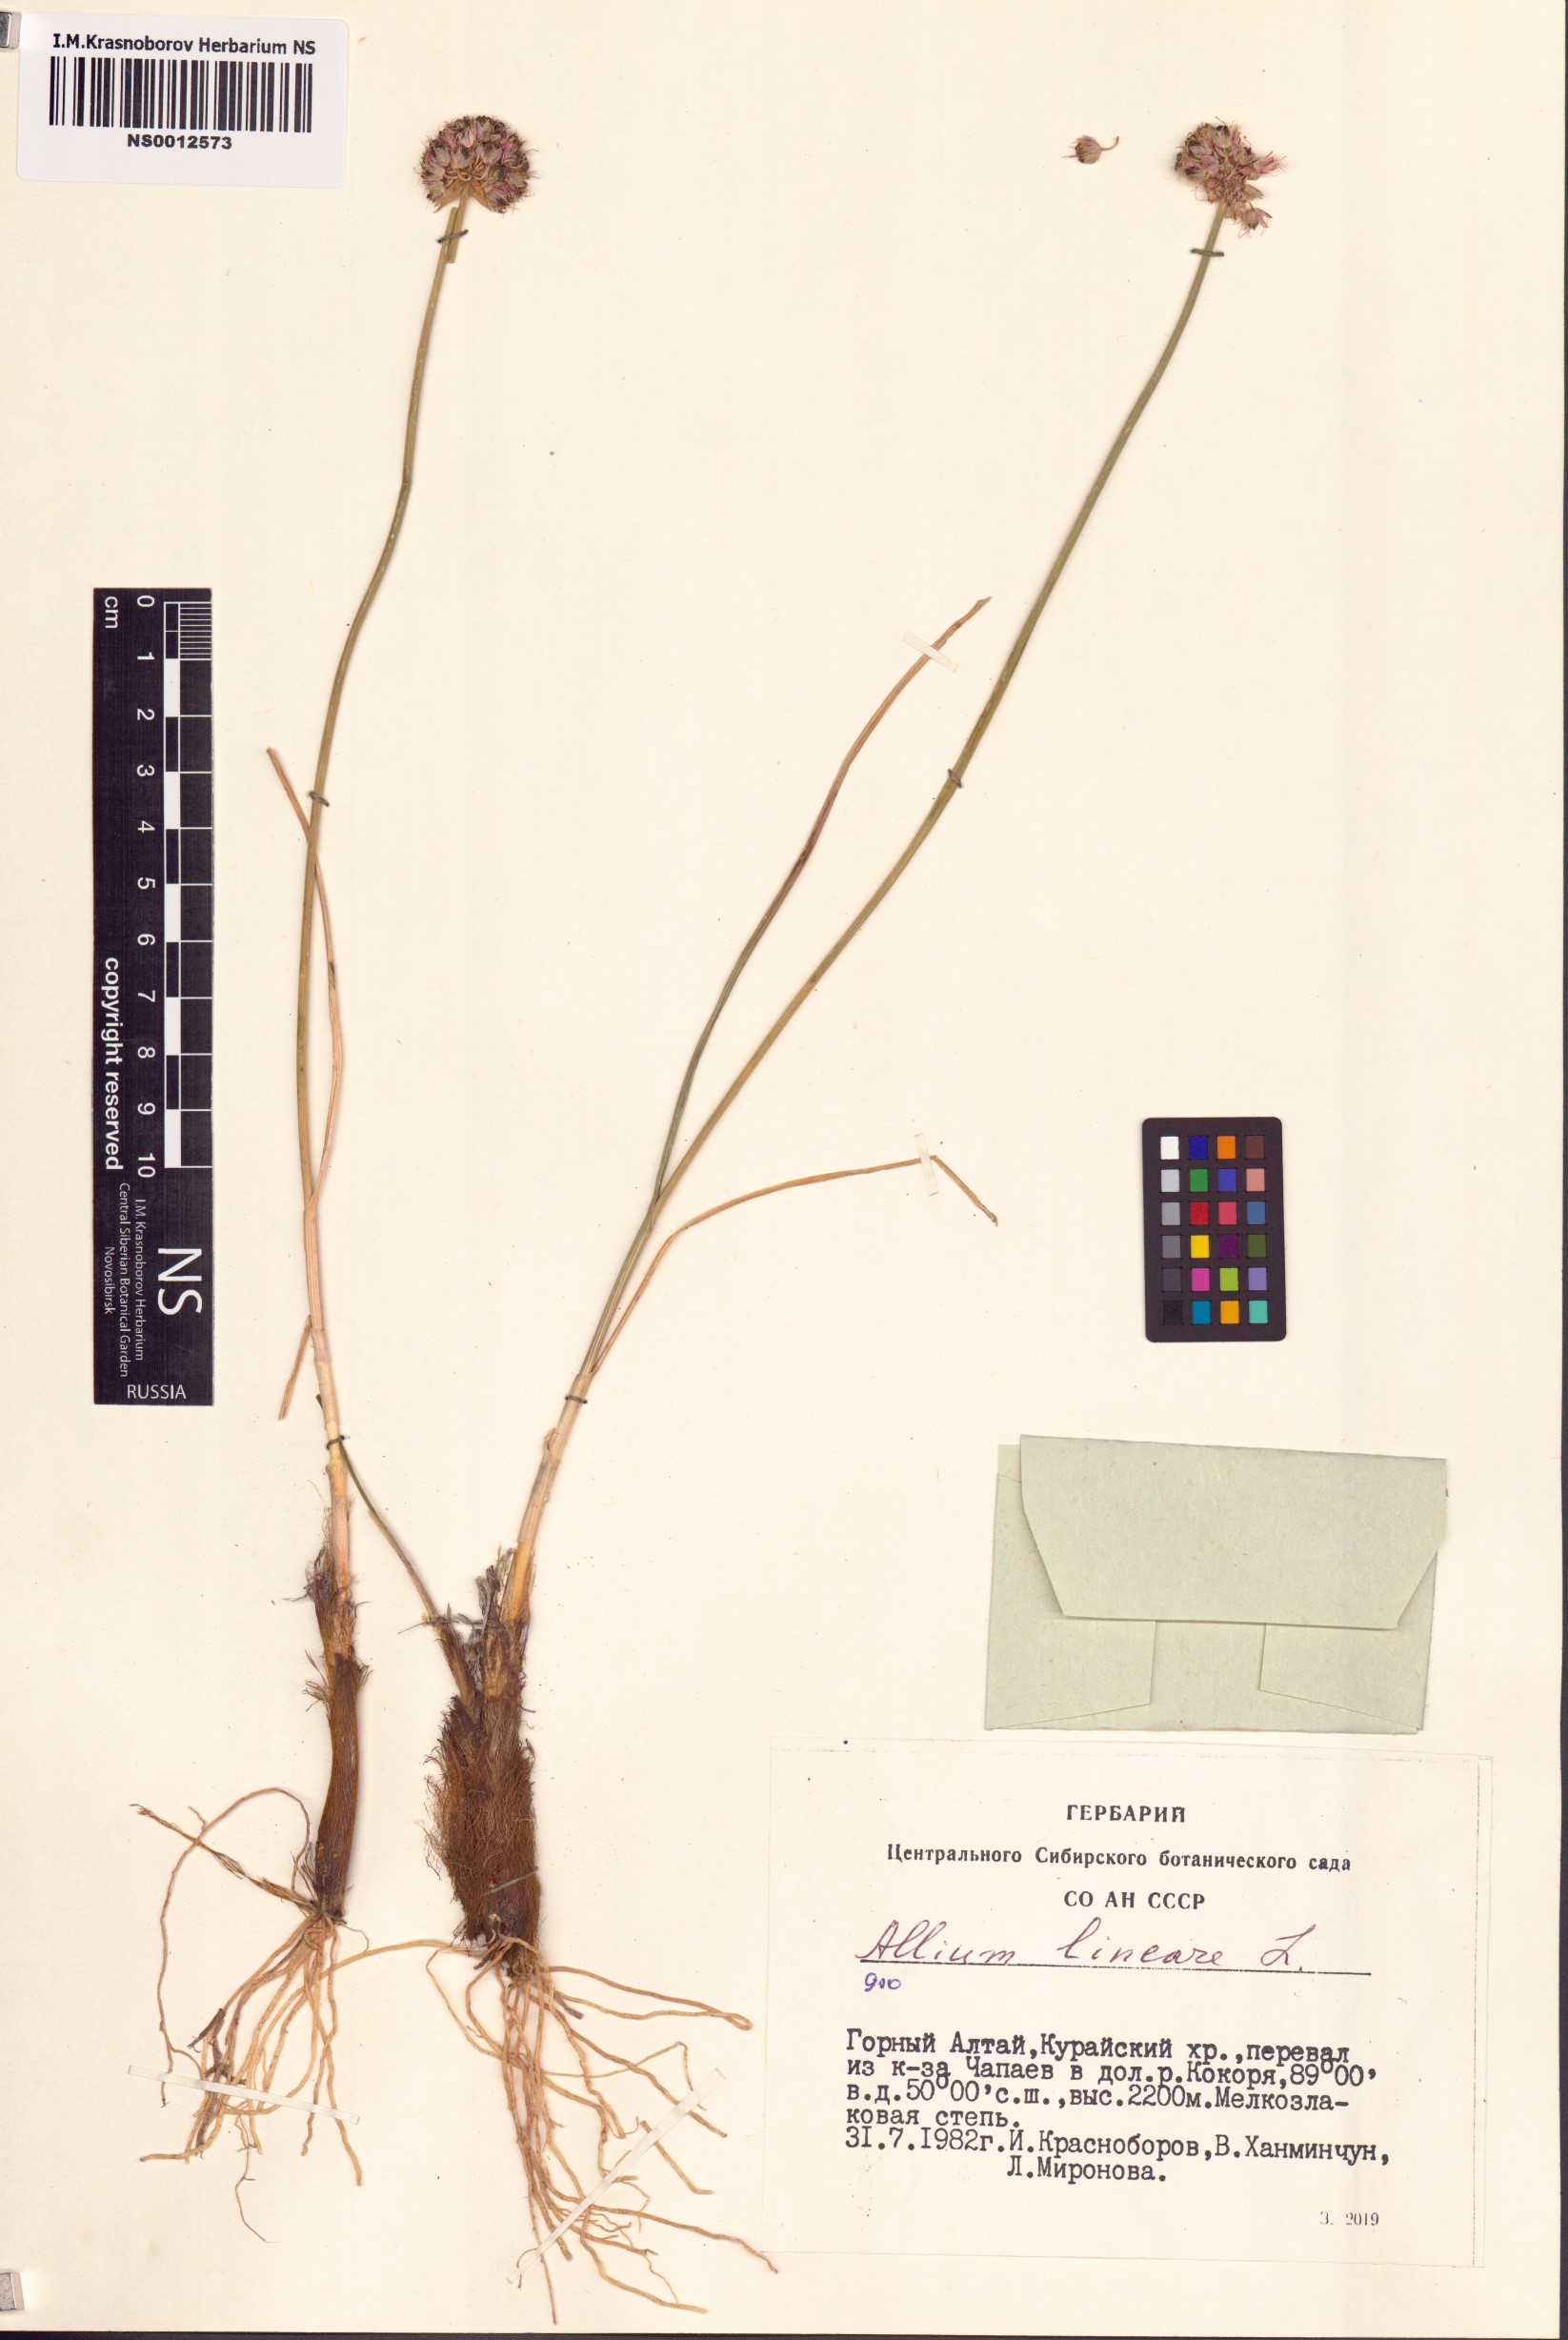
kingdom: Plantae
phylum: Tracheophyta
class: Liliopsida
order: Asparagales
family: Amaryllidaceae
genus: Allium
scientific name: Allium lineare
